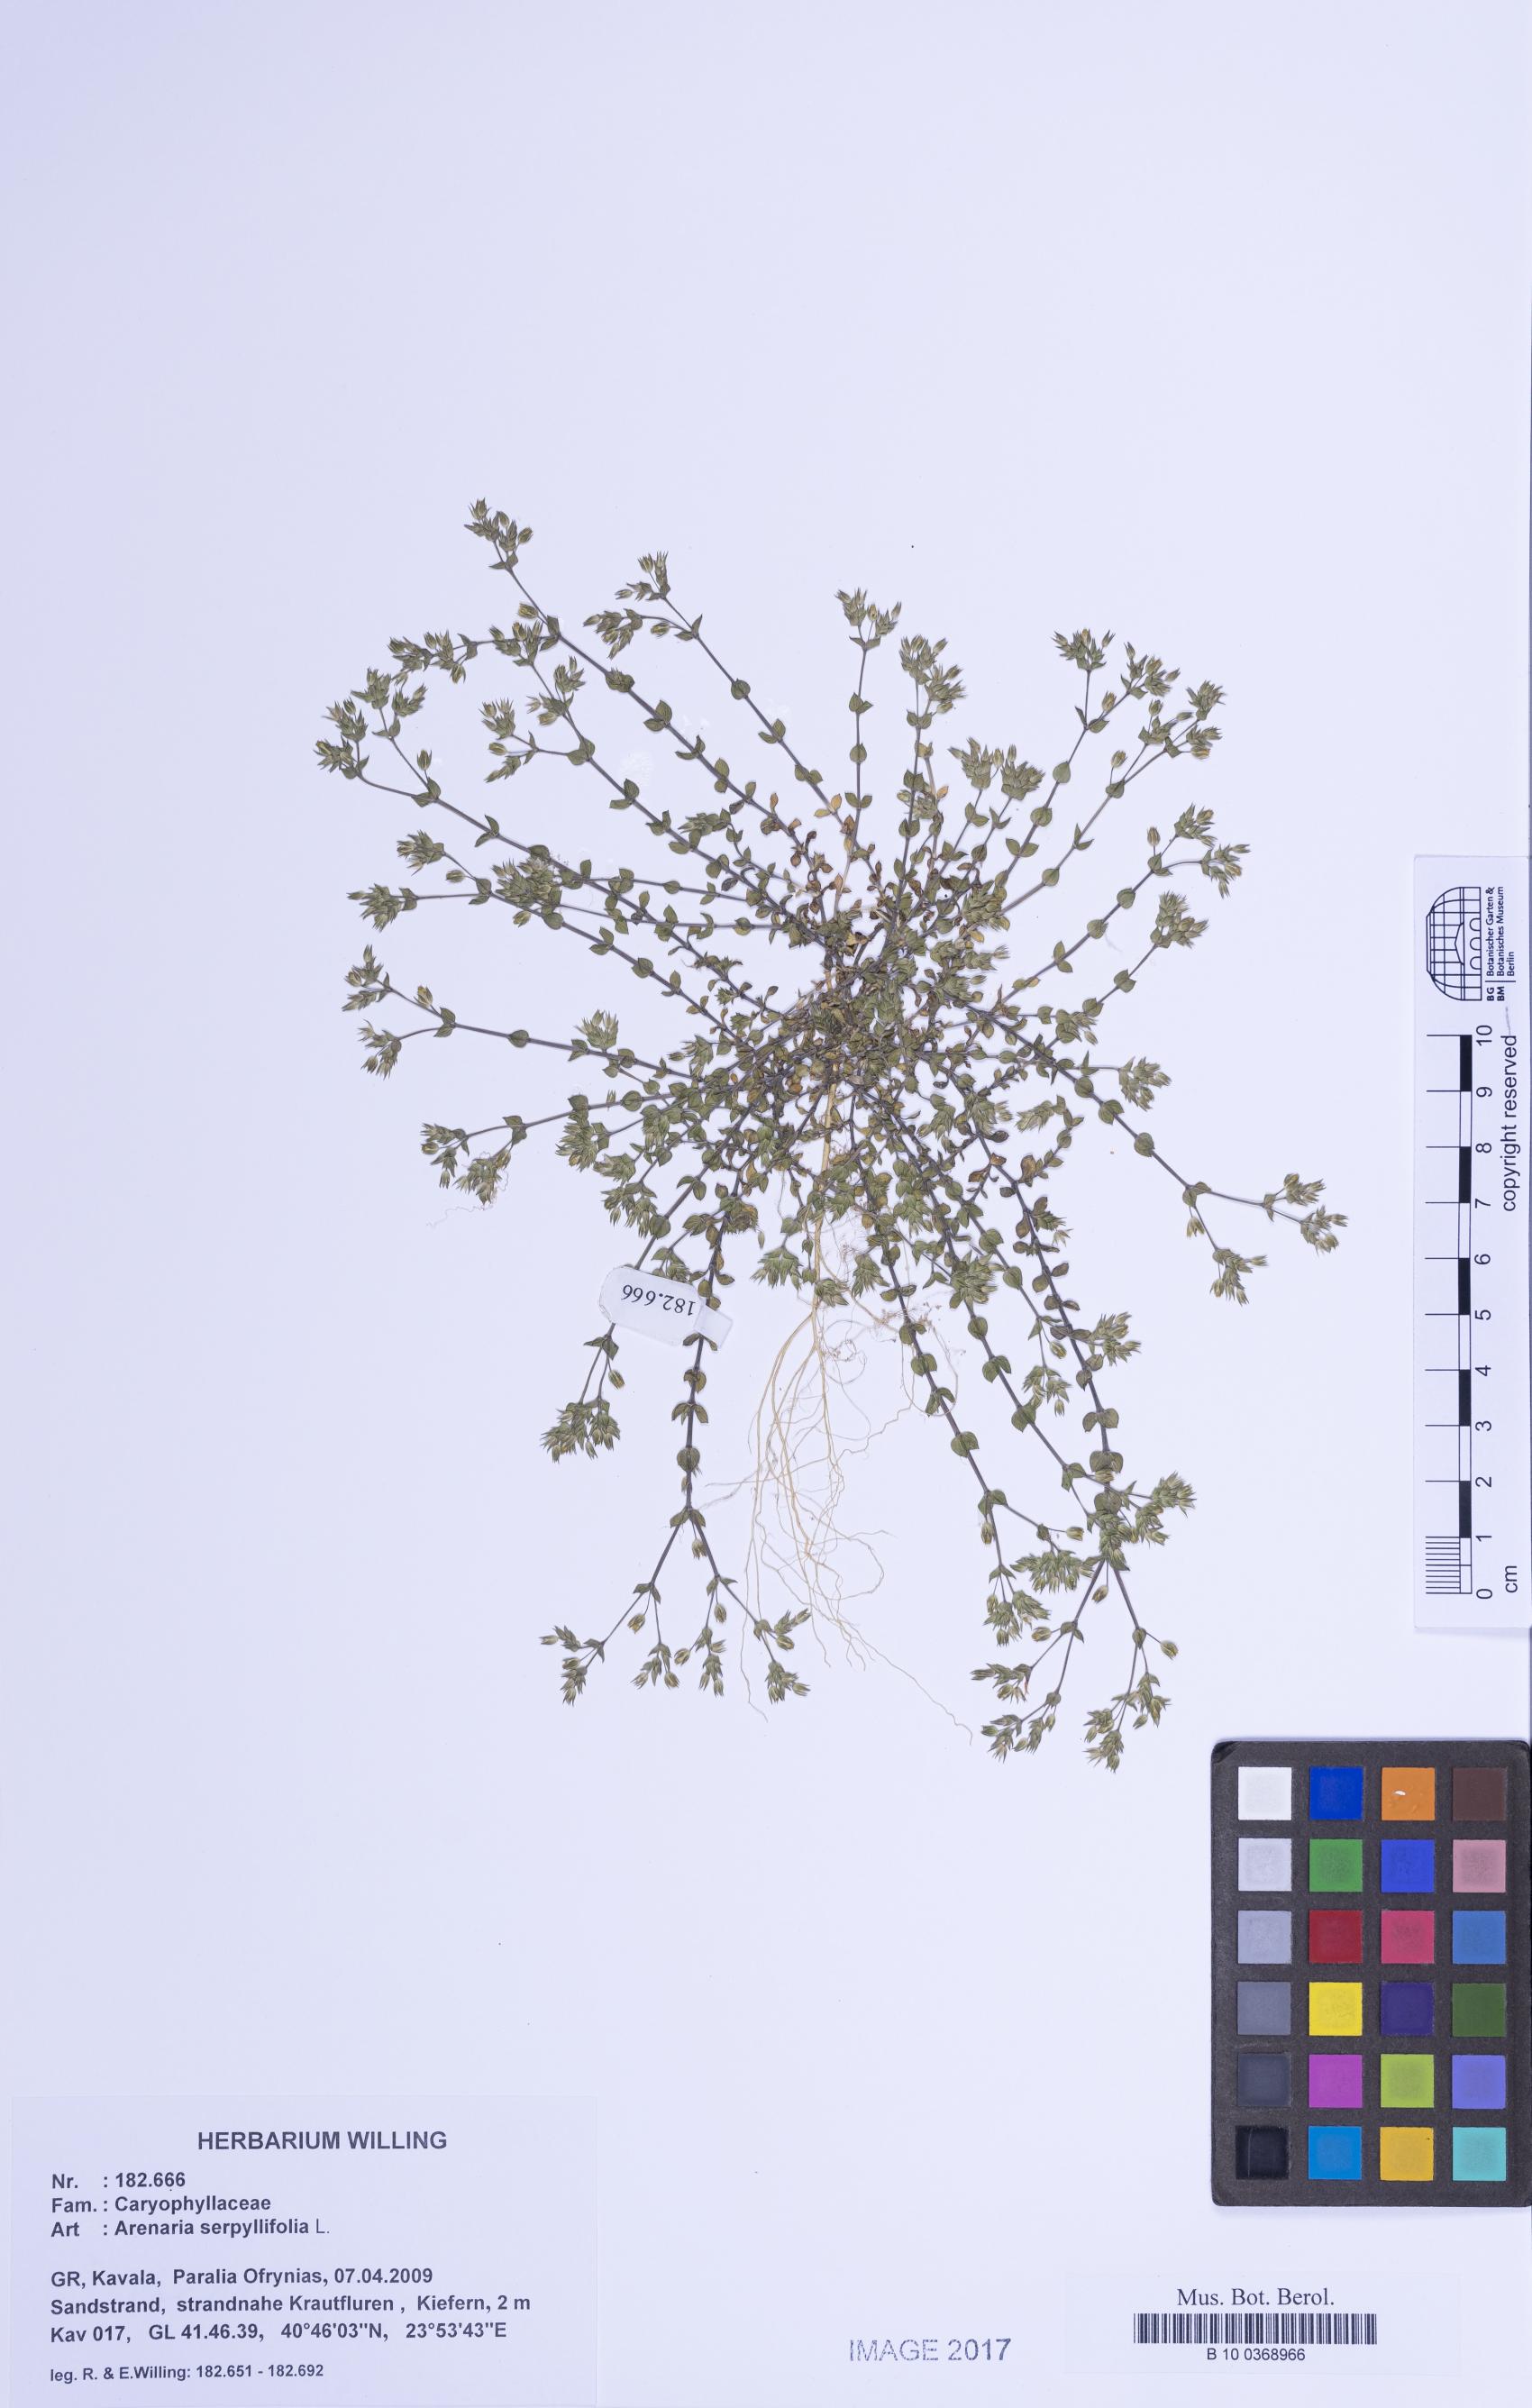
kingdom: Plantae
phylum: Tracheophyta
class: Magnoliopsida
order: Caryophyllales
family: Caryophyllaceae
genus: Arenaria
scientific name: Arenaria serpyllifolia
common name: Thyme-leaved sandwort
